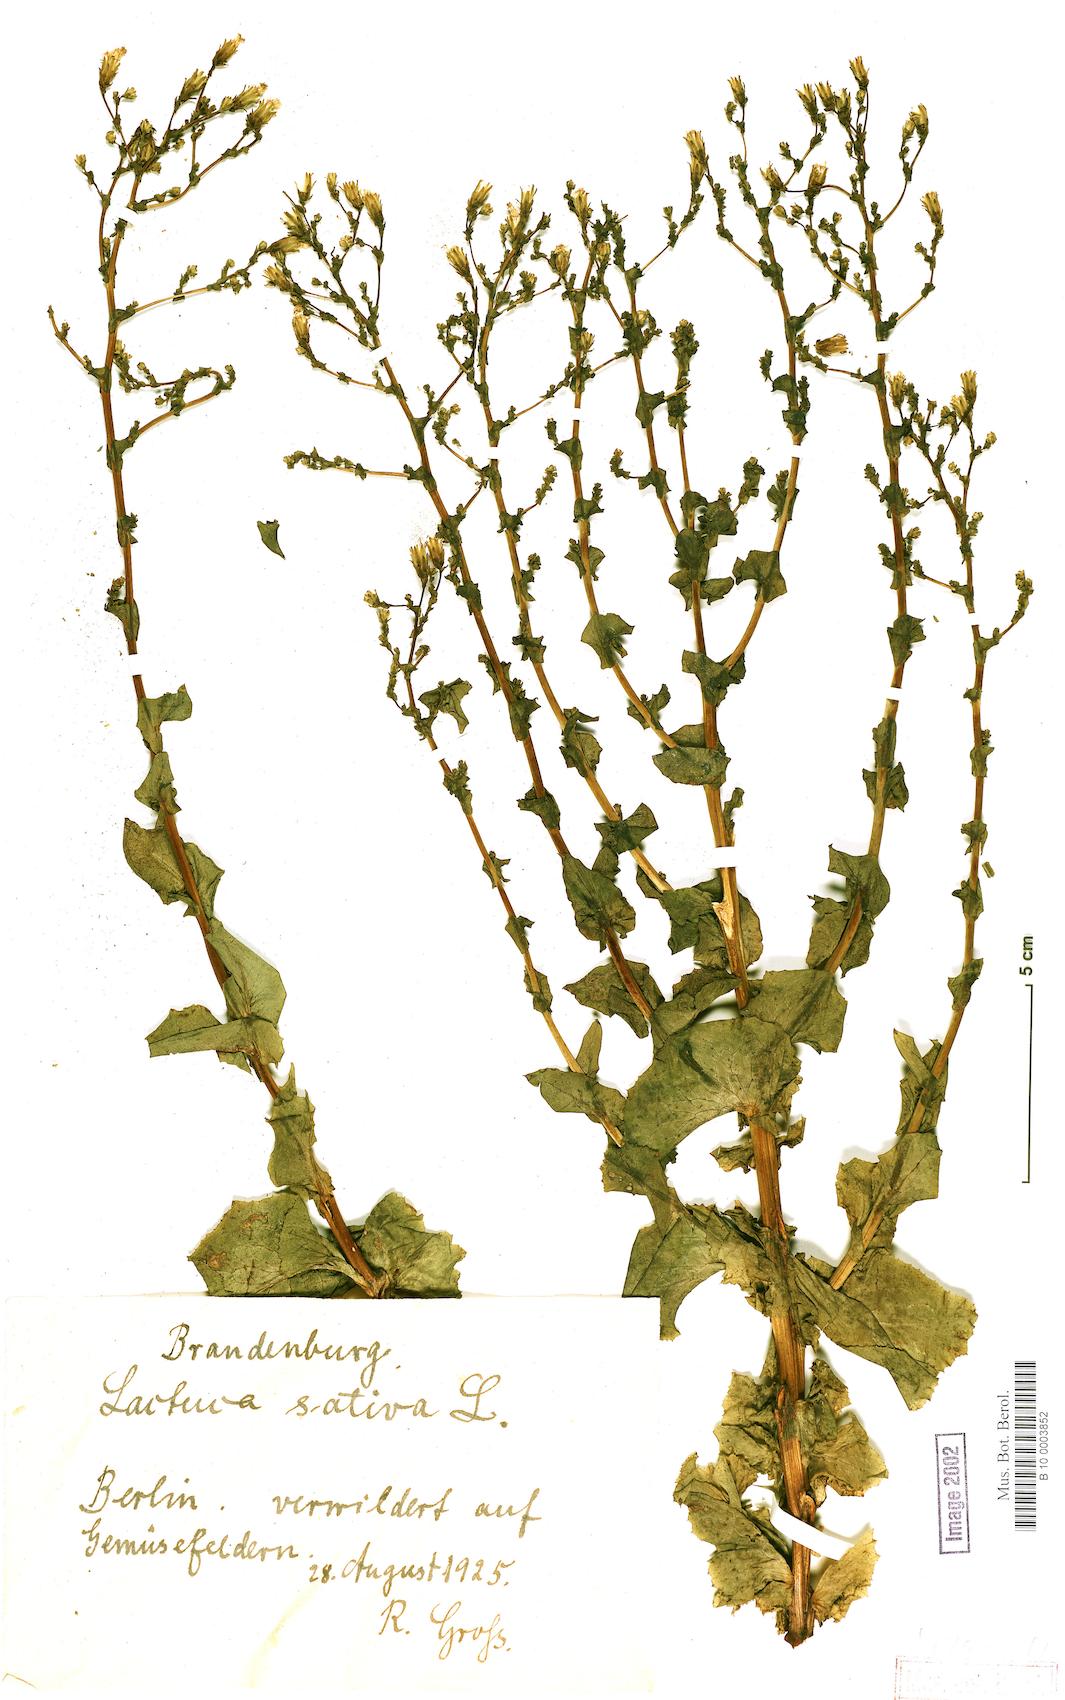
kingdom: Plantae
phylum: Tracheophyta
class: Magnoliopsida
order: Asterales
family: Asteraceae
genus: Lactuca
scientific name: Lactuca sativa
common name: Garden lettuce
